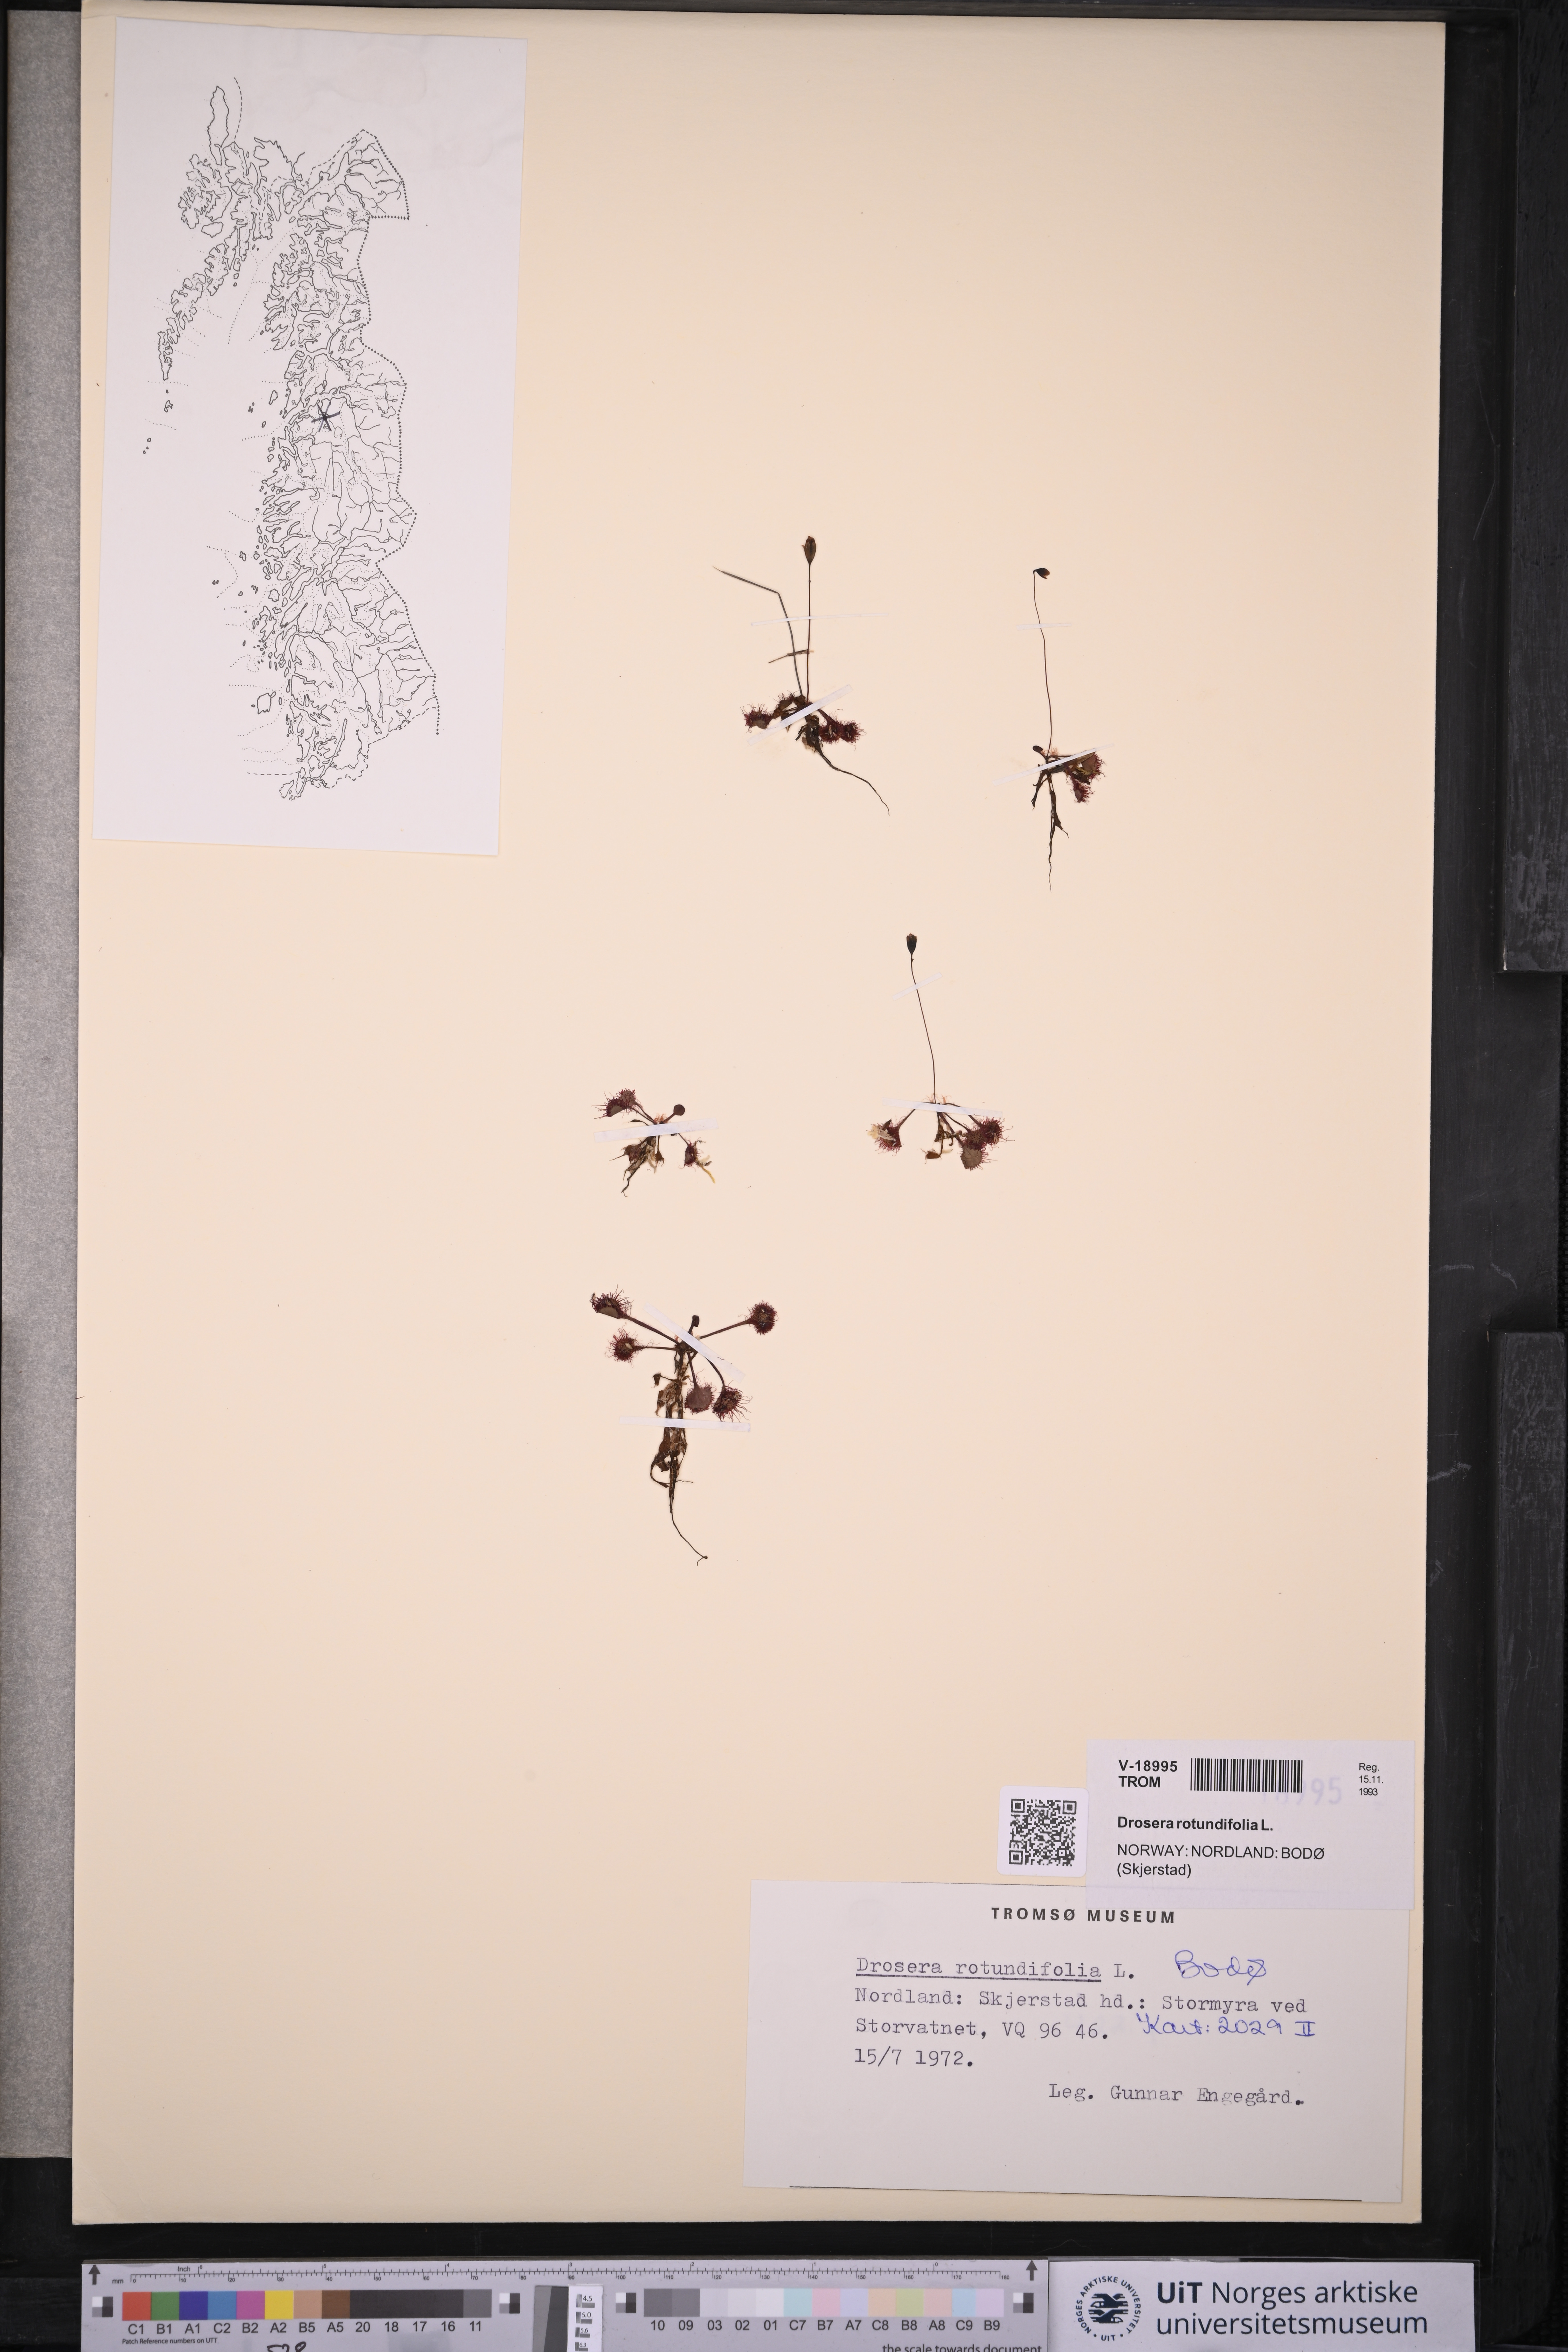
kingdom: Plantae
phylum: Tracheophyta
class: Magnoliopsida
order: Caryophyllales
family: Droseraceae
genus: Drosera
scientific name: Drosera rotundifolia
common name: Round-leaved sundew
